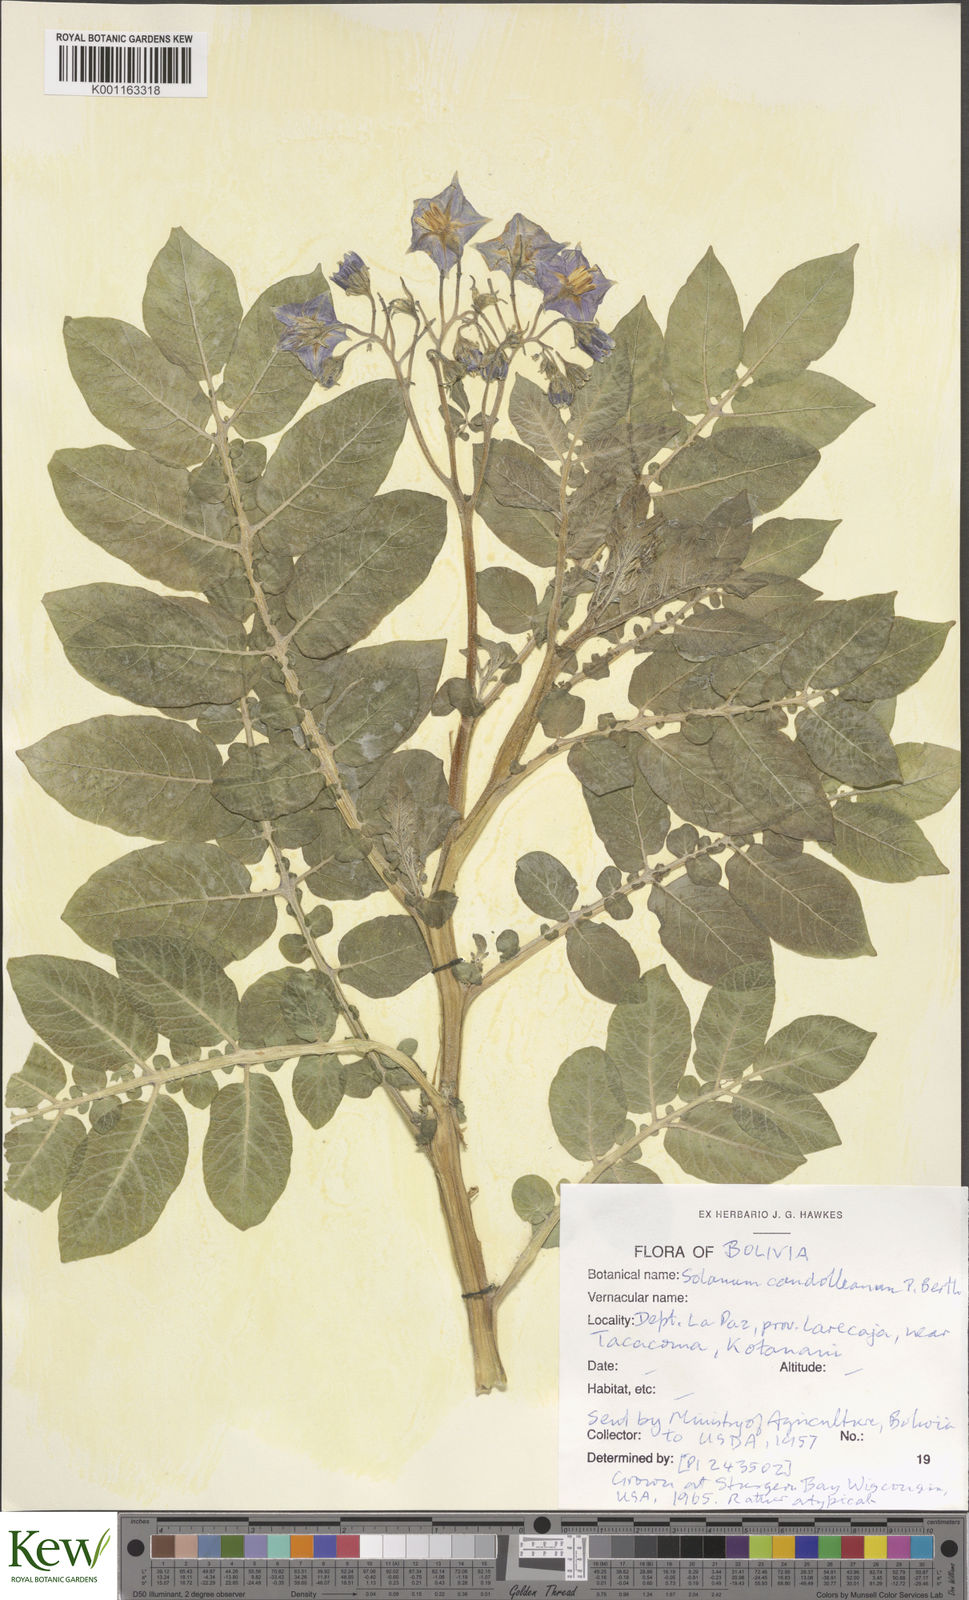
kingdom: Plantae
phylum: Tracheophyta
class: Magnoliopsida
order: Solanales
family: Solanaceae
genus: Solanum
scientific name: Solanum candolleanum
